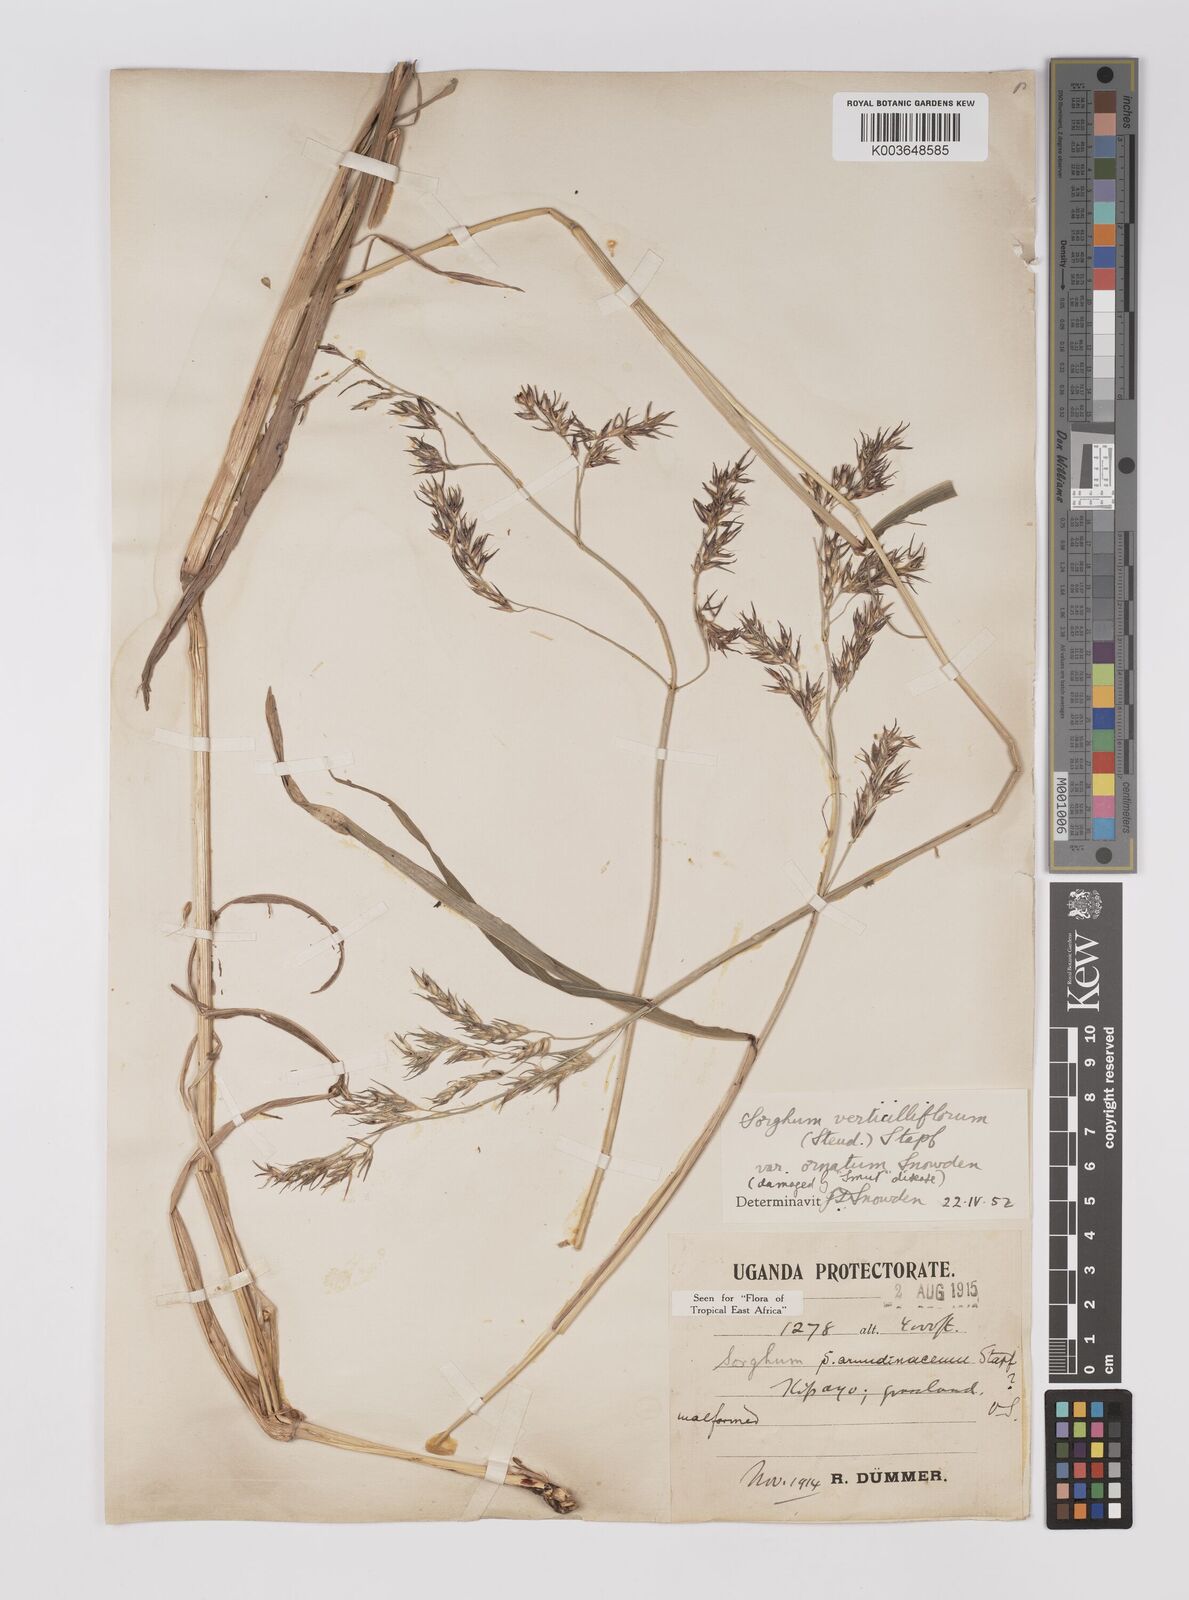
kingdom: Plantae
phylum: Tracheophyta
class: Liliopsida
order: Poales
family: Poaceae
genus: Sorghum
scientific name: Sorghum arundinaceum
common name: Sorghum
